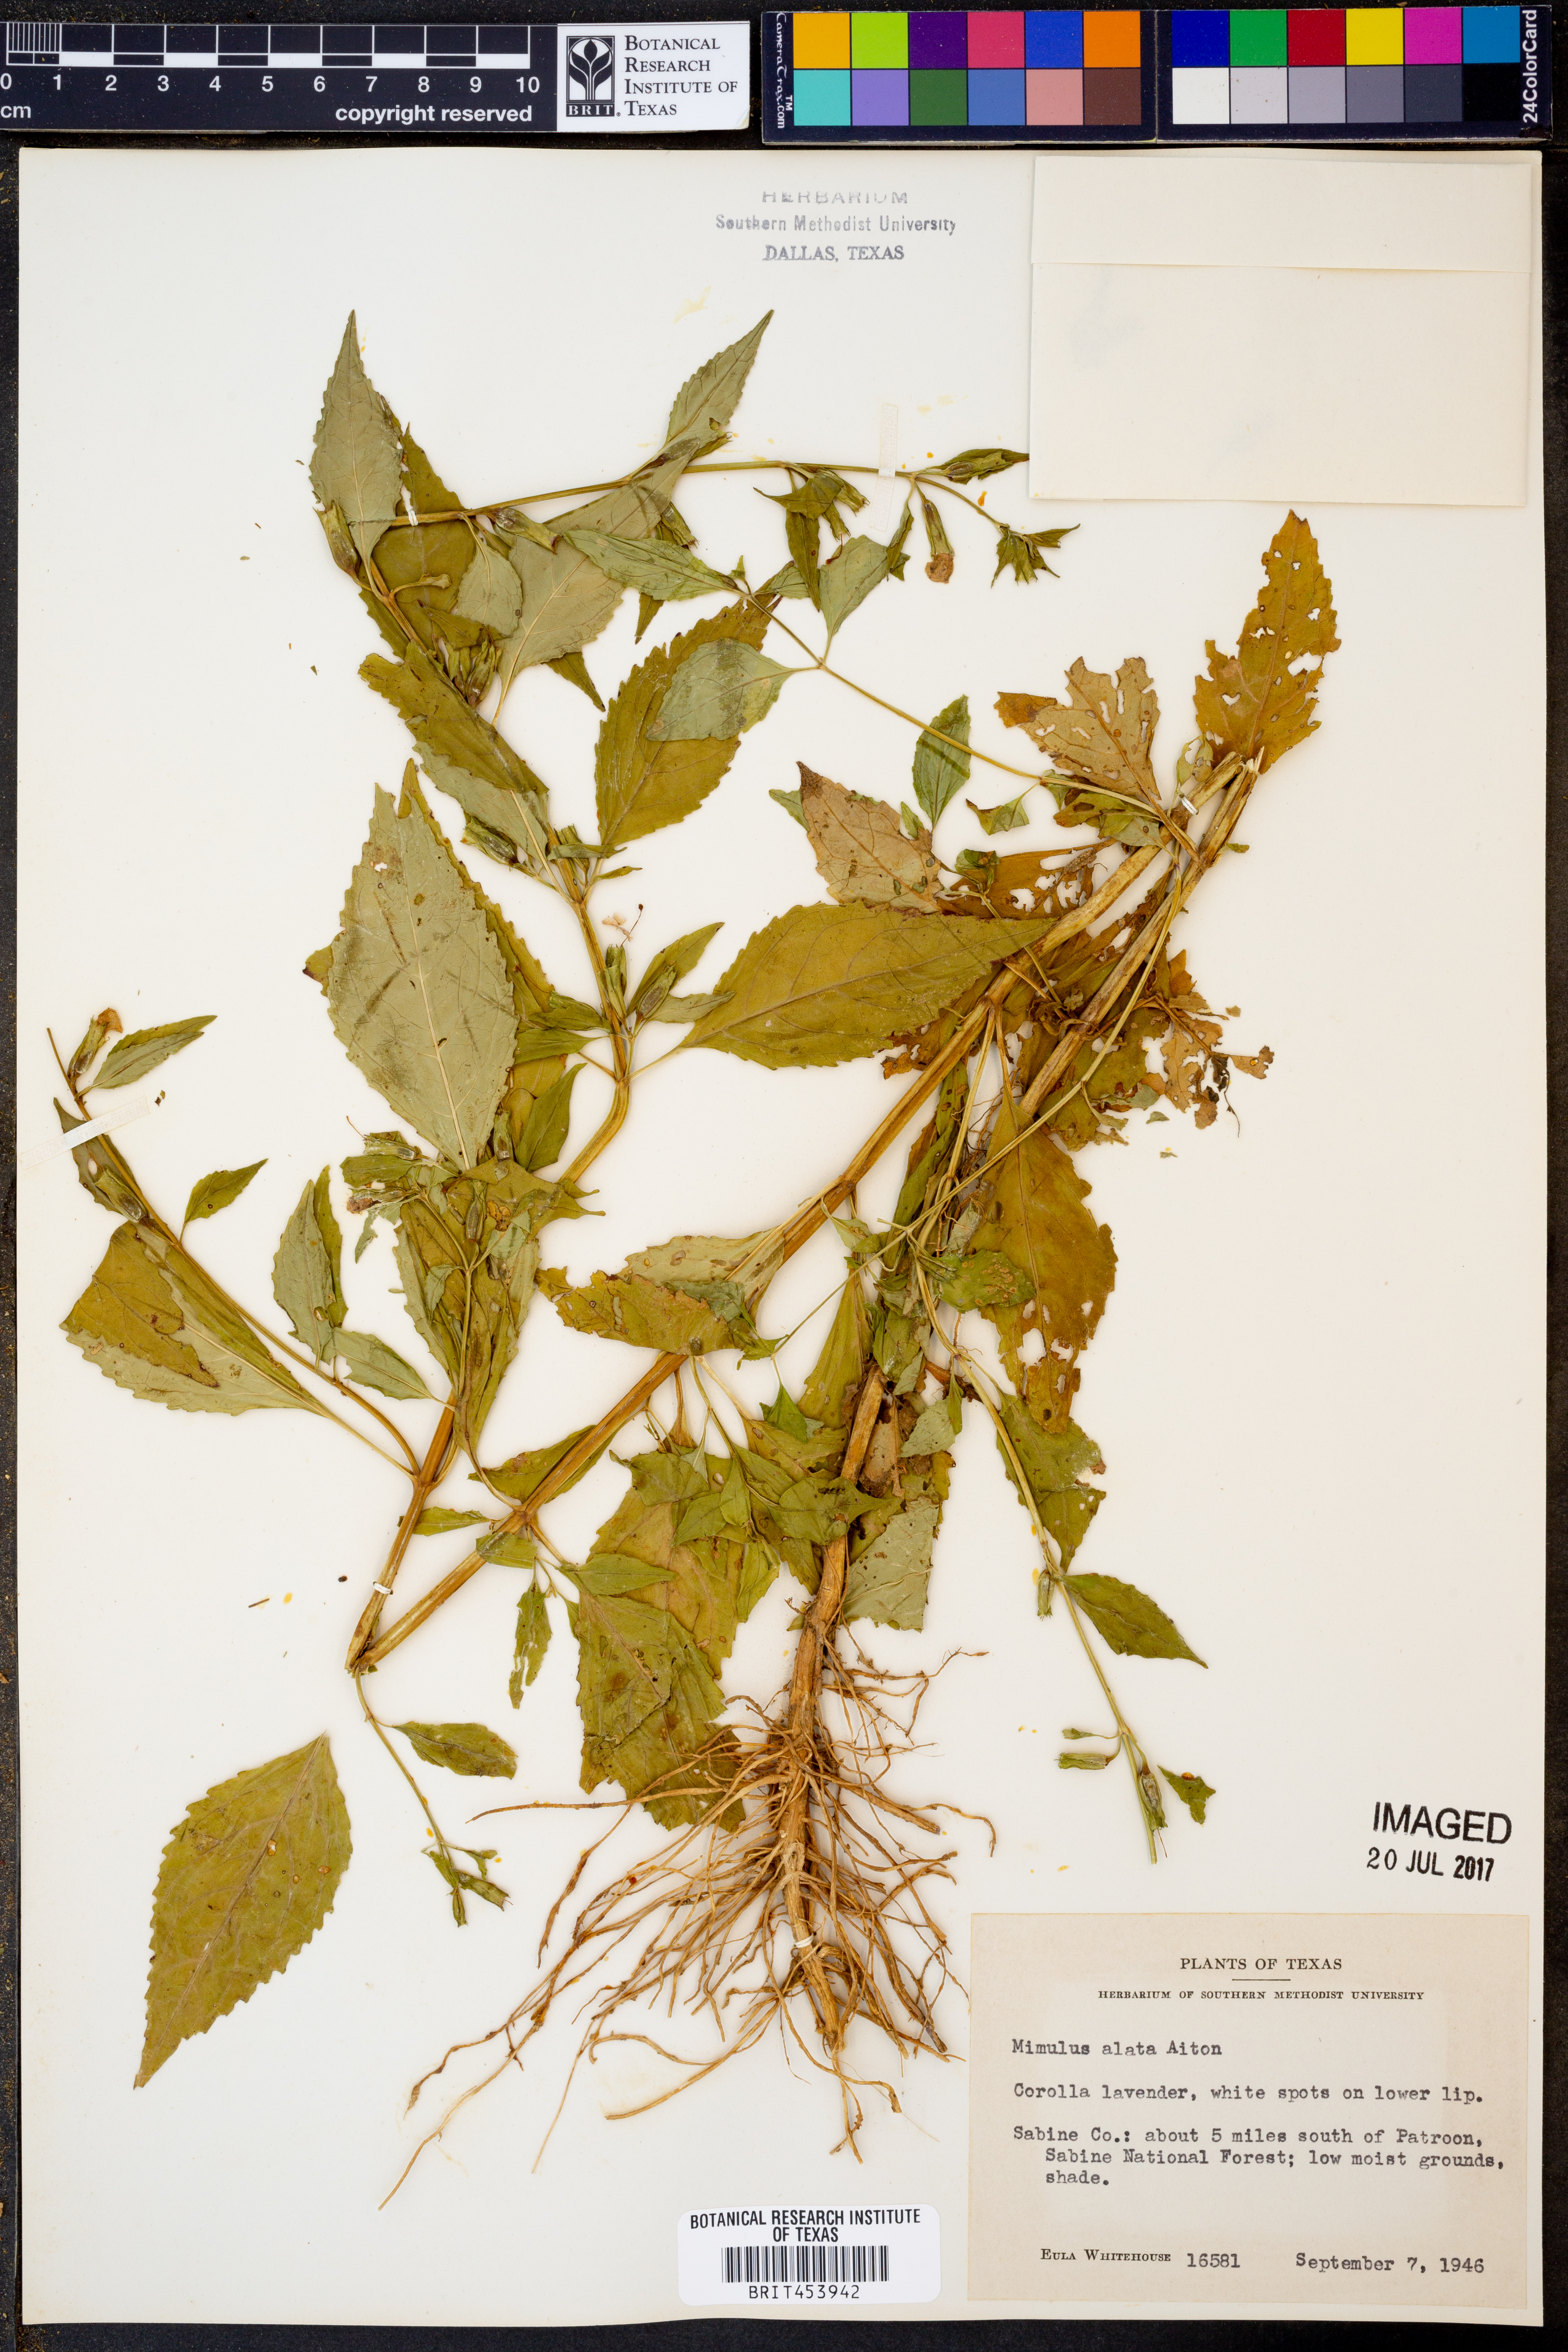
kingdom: Plantae
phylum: Tracheophyta
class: Magnoliopsida
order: Lamiales
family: Phrymaceae
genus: Mimulus
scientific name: Mimulus alatus
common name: Sharp-wing monkey-flower
